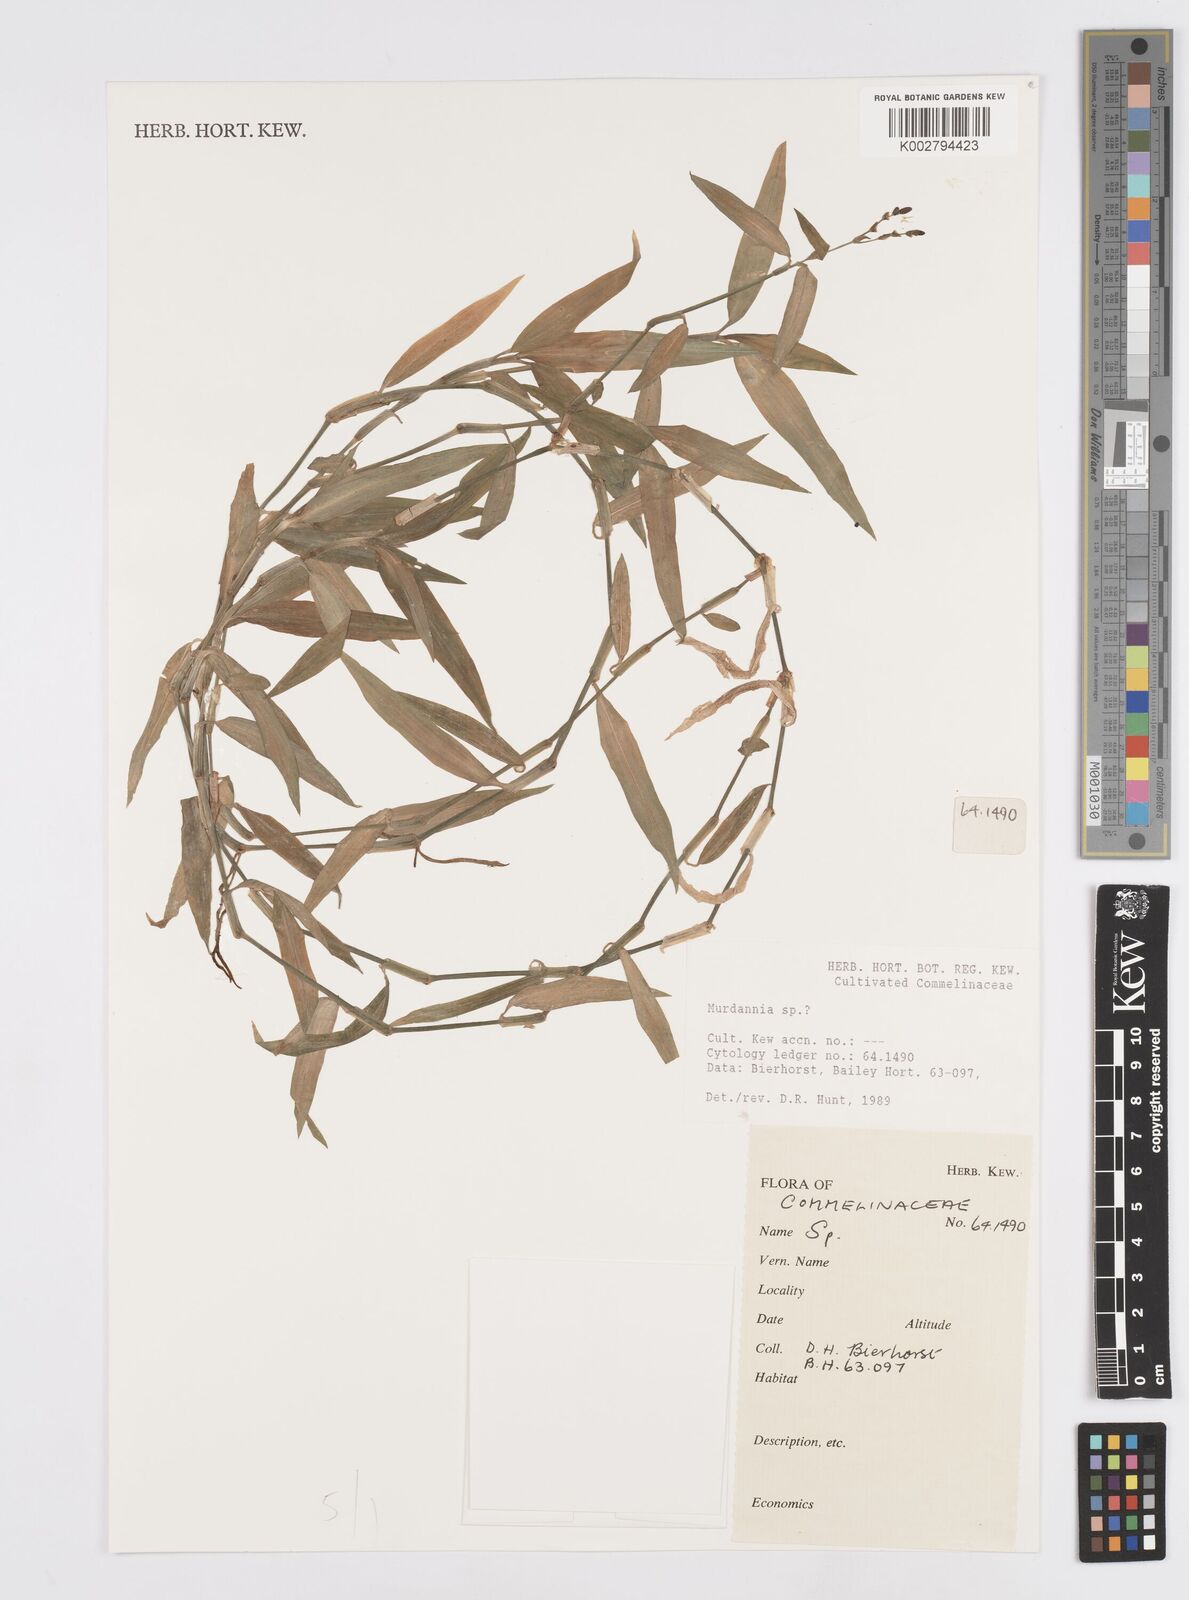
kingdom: Plantae
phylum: Tracheophyta
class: Liliopsida
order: Commelinales
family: Commelinaceae
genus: Murdannia
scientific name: Murdannia
